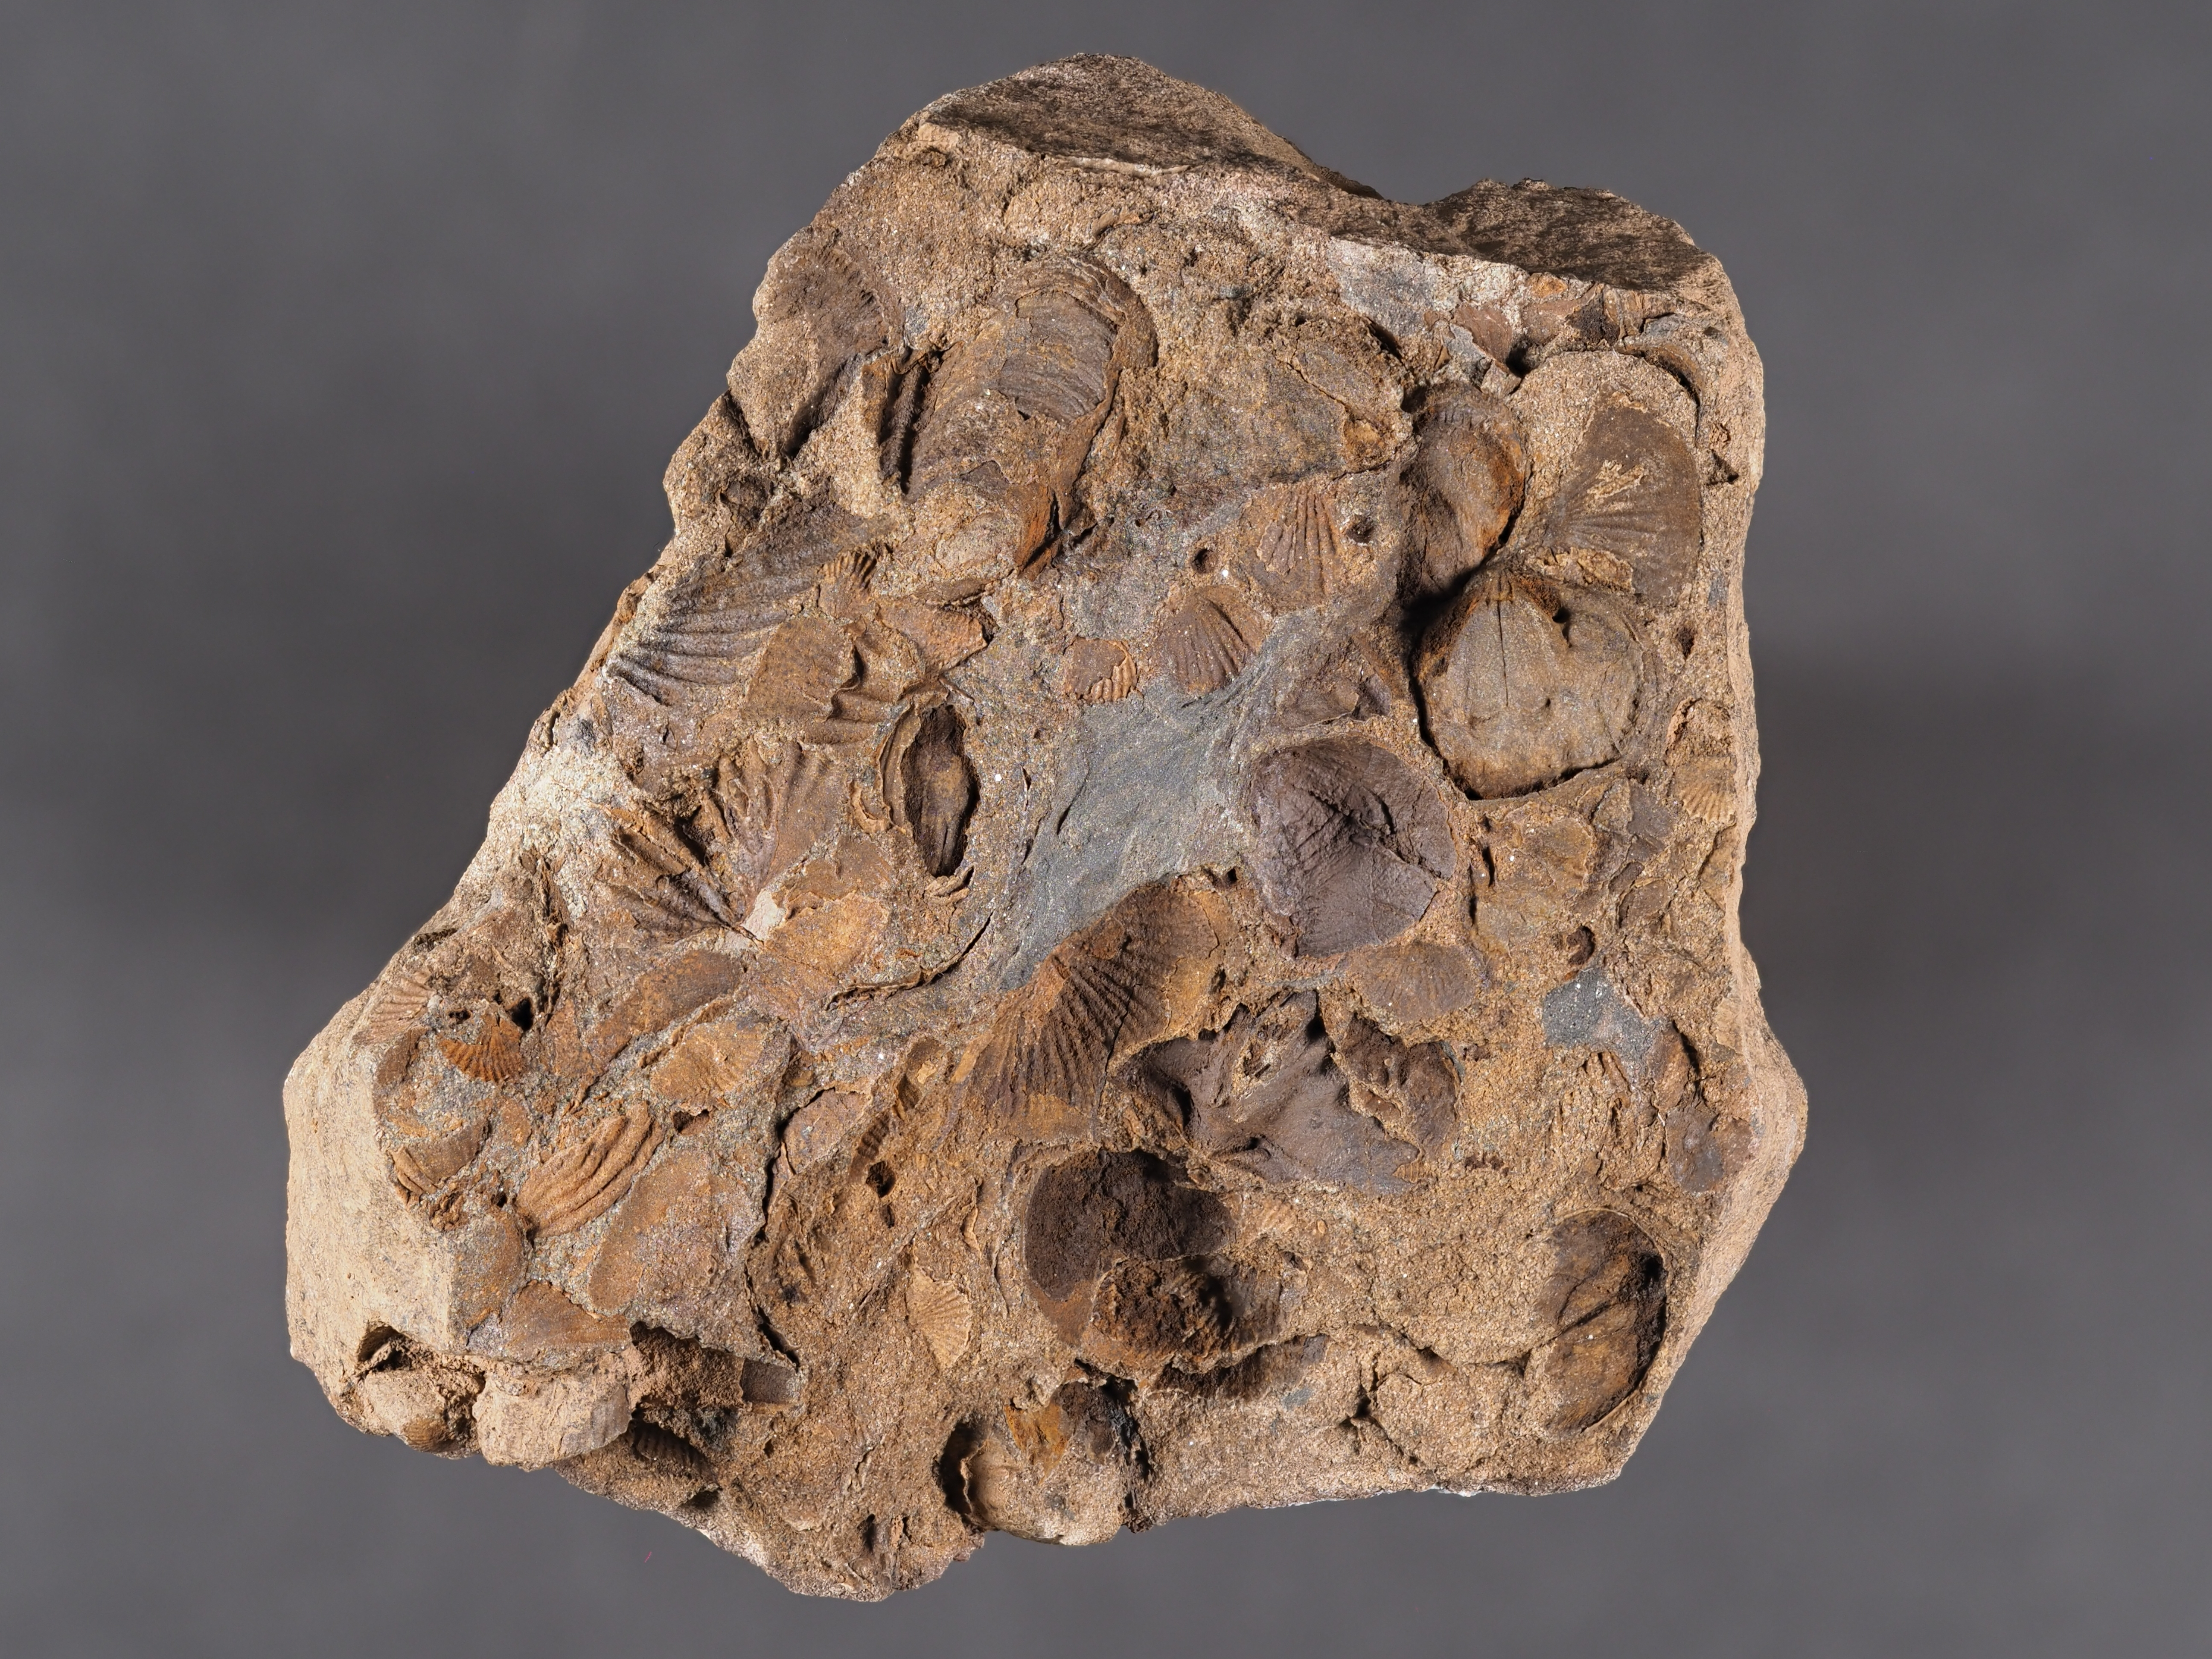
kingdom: Animalia
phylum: Brachiopoda
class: Rhynchonellata
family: Rhipidomellidae
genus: Platyorthis
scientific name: Platyorthis
